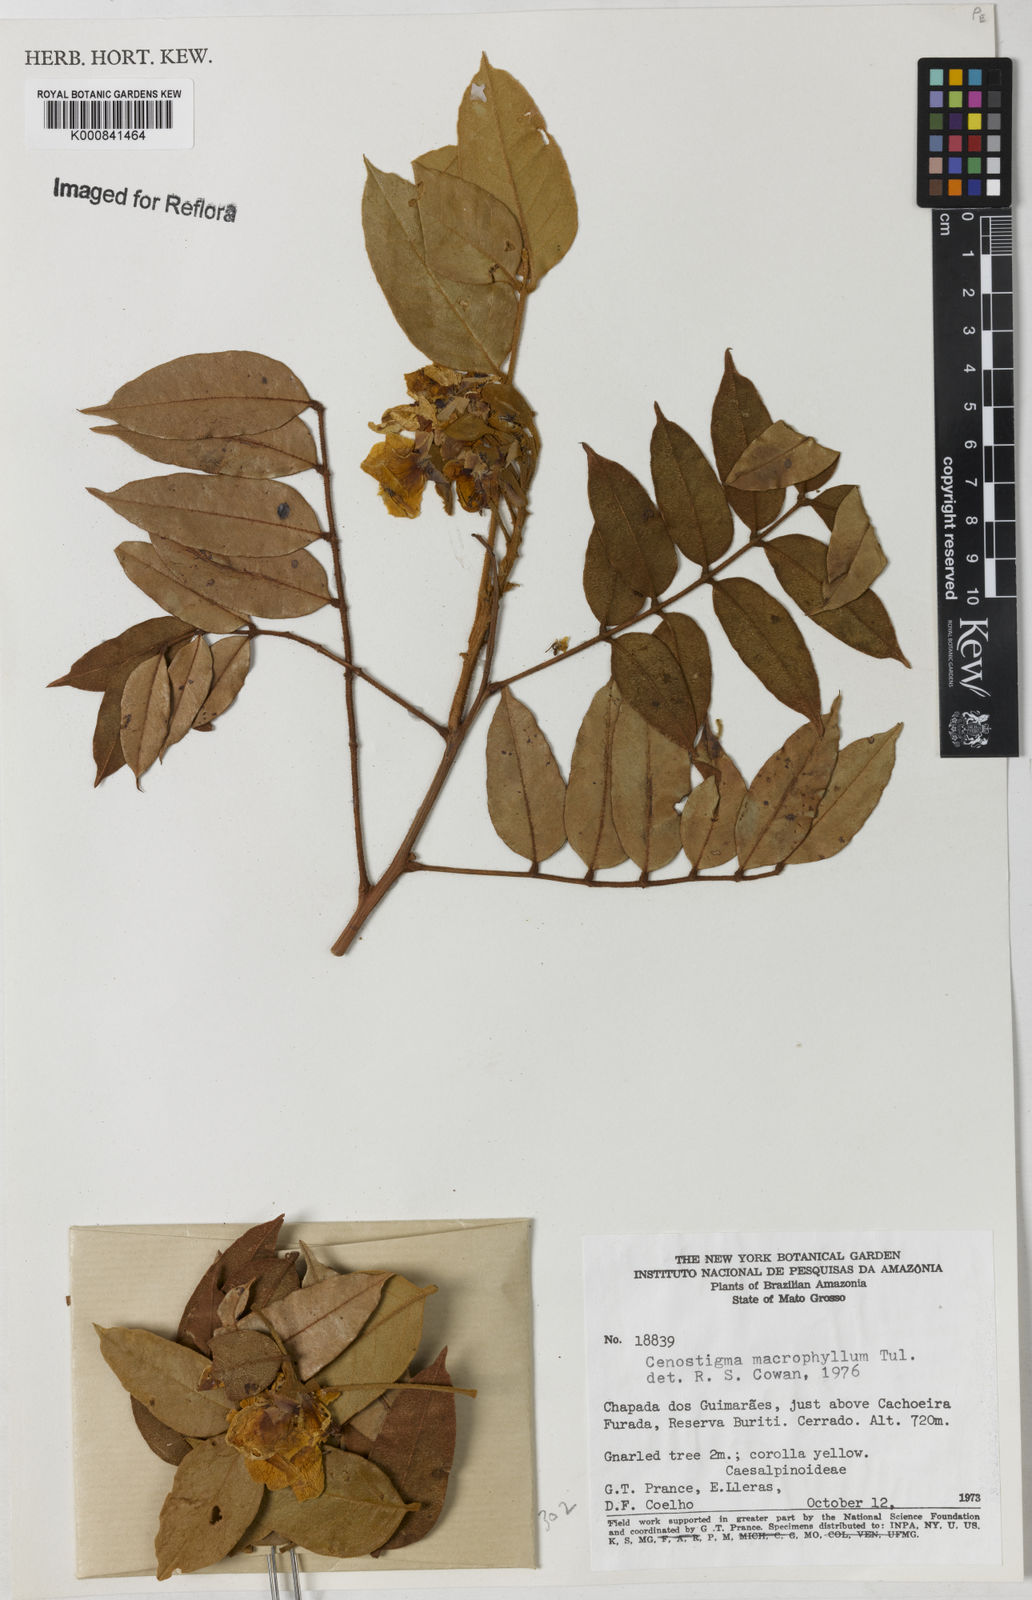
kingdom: Plantae
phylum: Tracheophyta
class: Magnoliopsida
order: Fabales
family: Fabaceae
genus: Cenostigma
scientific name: Cenostigma macrophyllum
